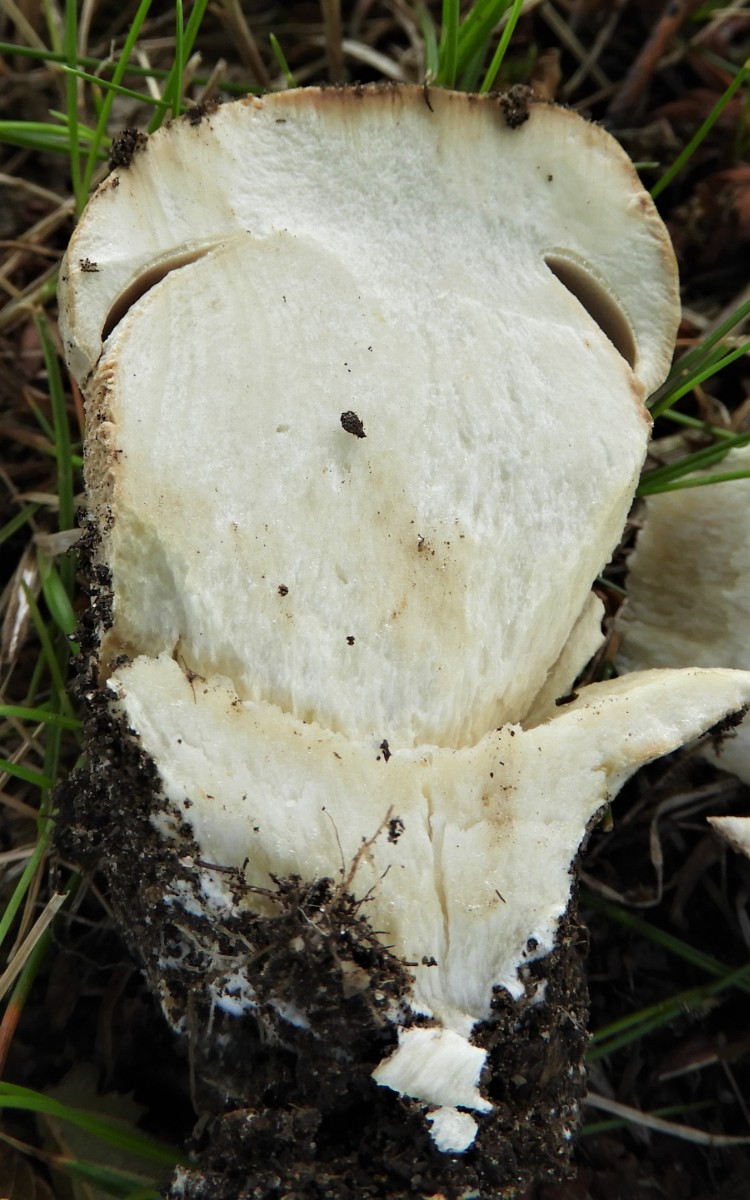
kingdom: Fungi
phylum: Basidiomycota
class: Agaricomycetes
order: Boletales
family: Boletaceae
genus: Boletus
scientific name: Boletus reticulatus
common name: sommer-rørhat
